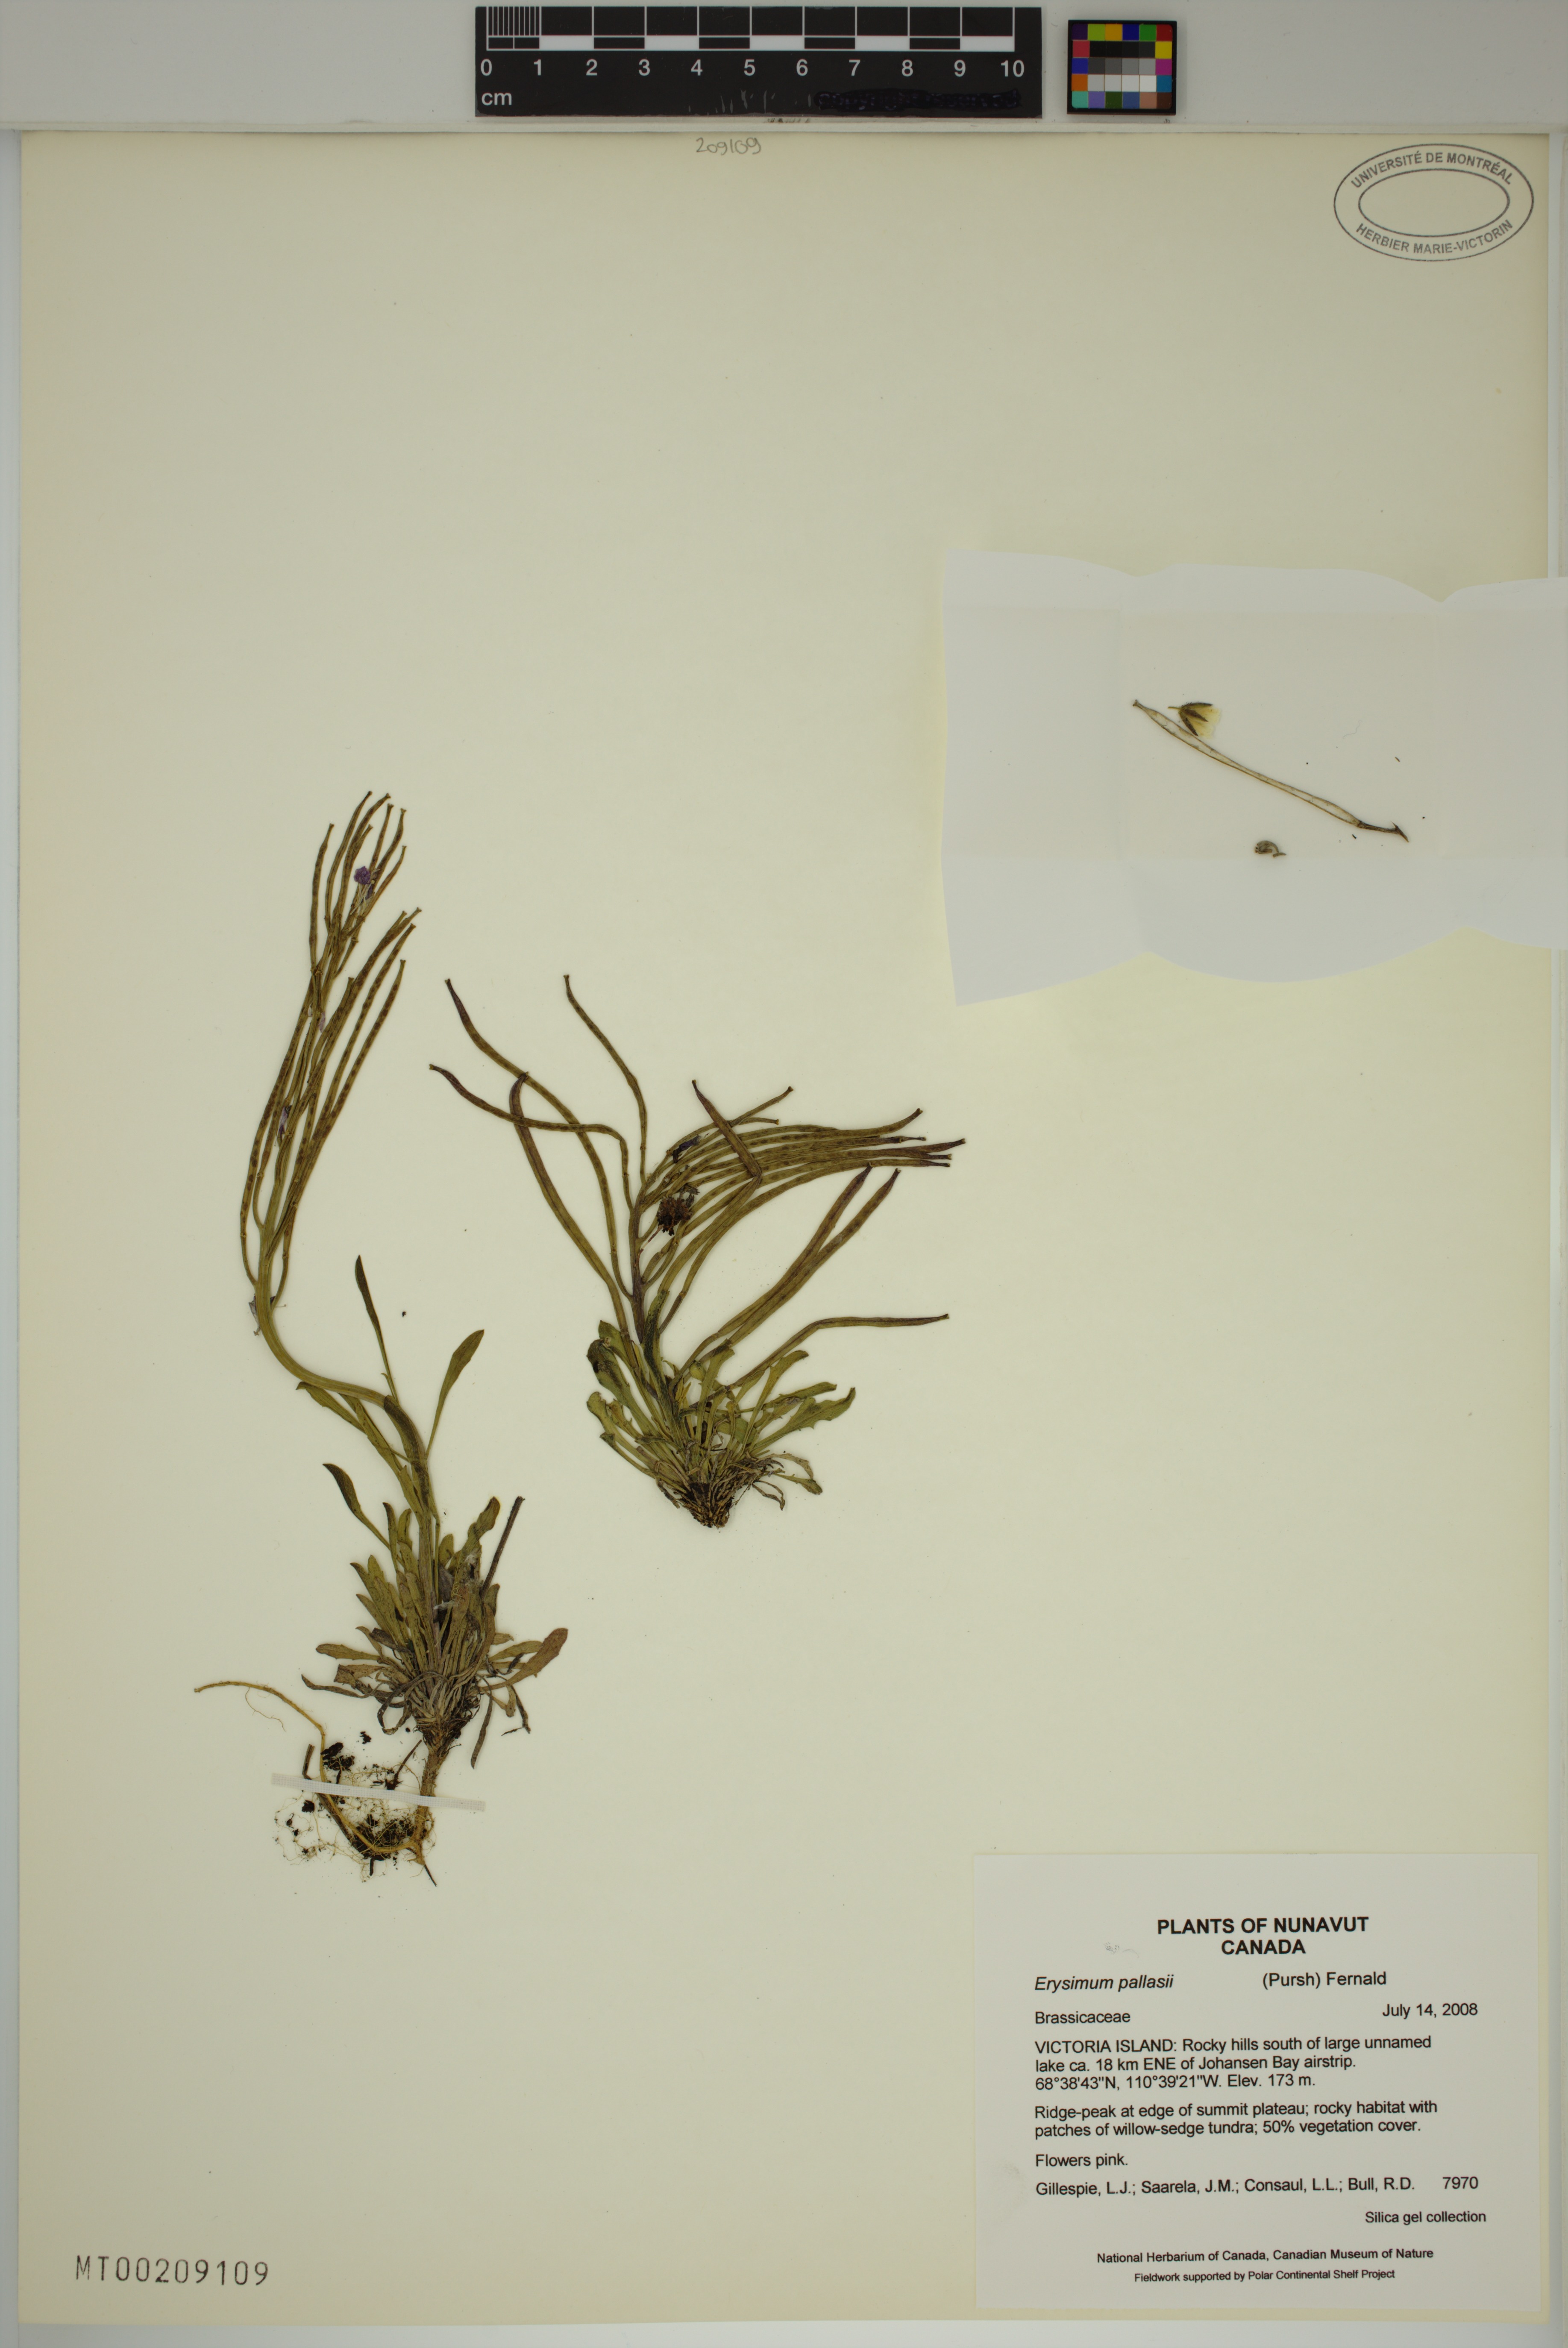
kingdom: Plantae
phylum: Tracheophyta
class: Magnoliopsida
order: Brassicales
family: Brassicaceae
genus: Erysimum
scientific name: Erysimum pallasii
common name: Pallas' wallflower
